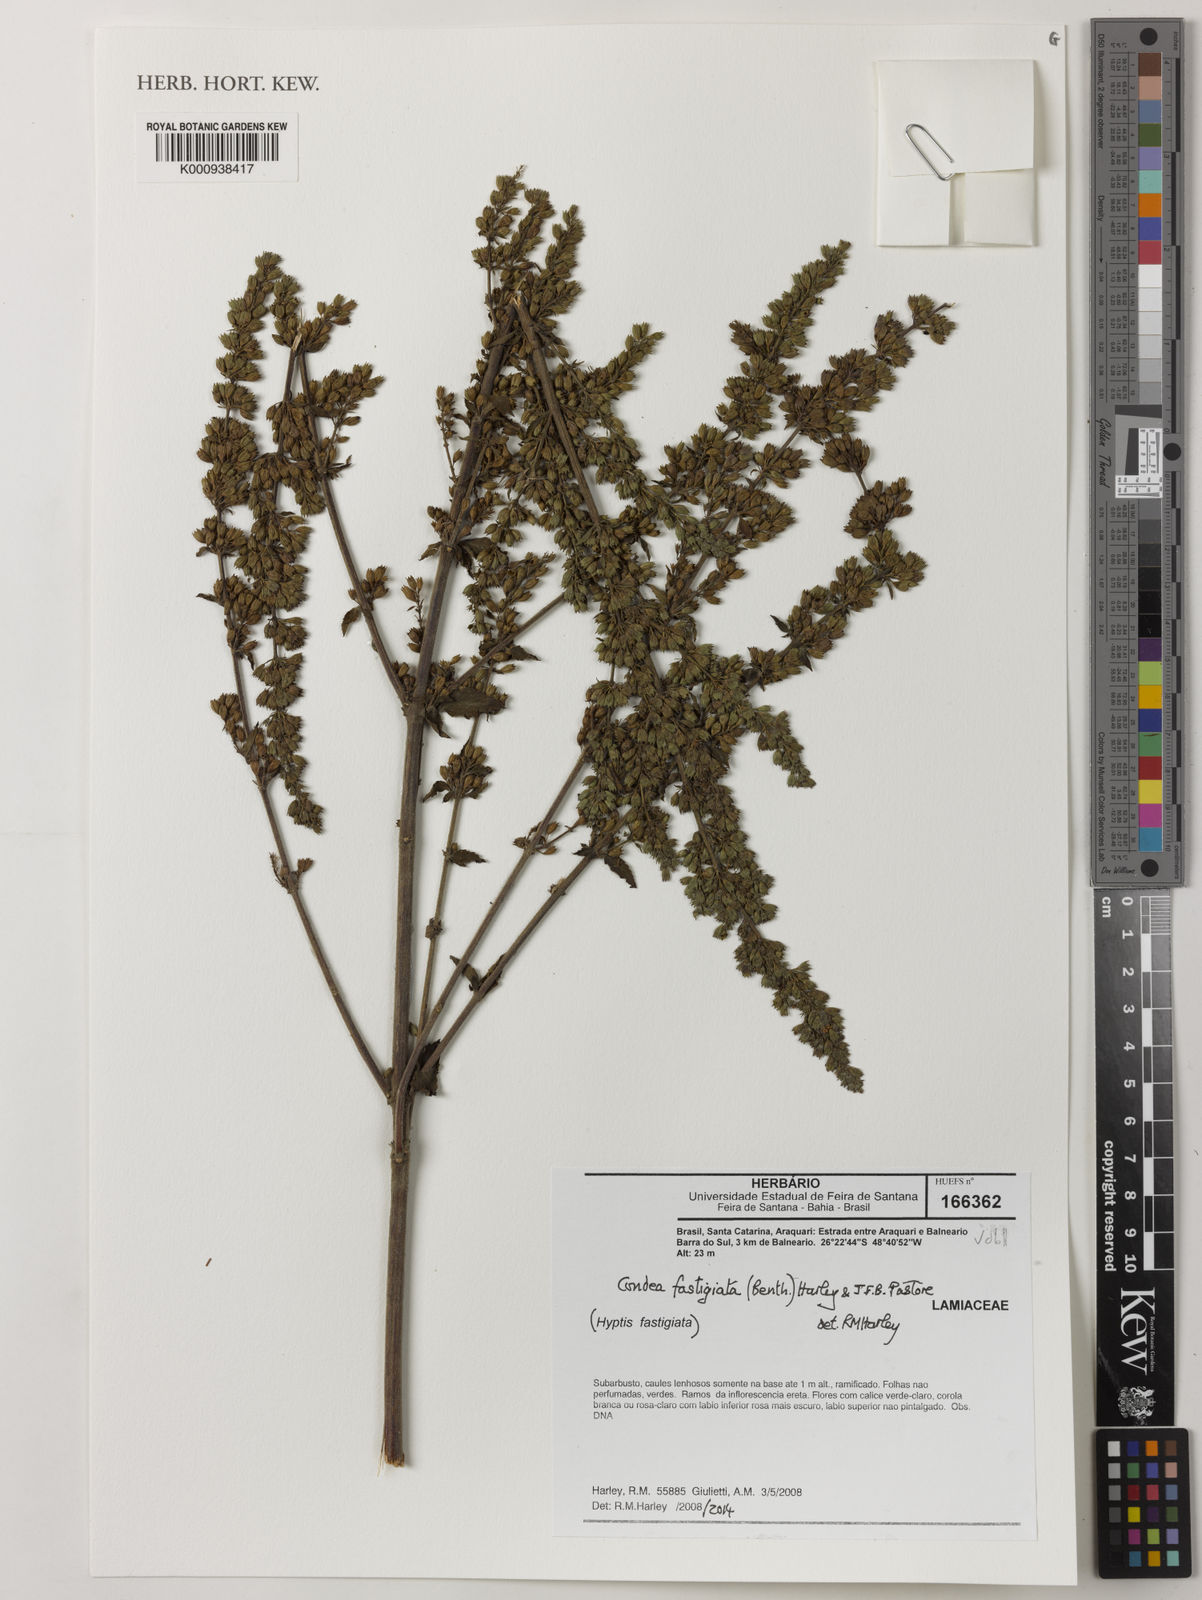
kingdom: Plantae
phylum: Tracheophyta
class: Magnoliopsida
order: Lamiales
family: Lamiaceae
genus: Condea
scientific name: Condea fastigiata
